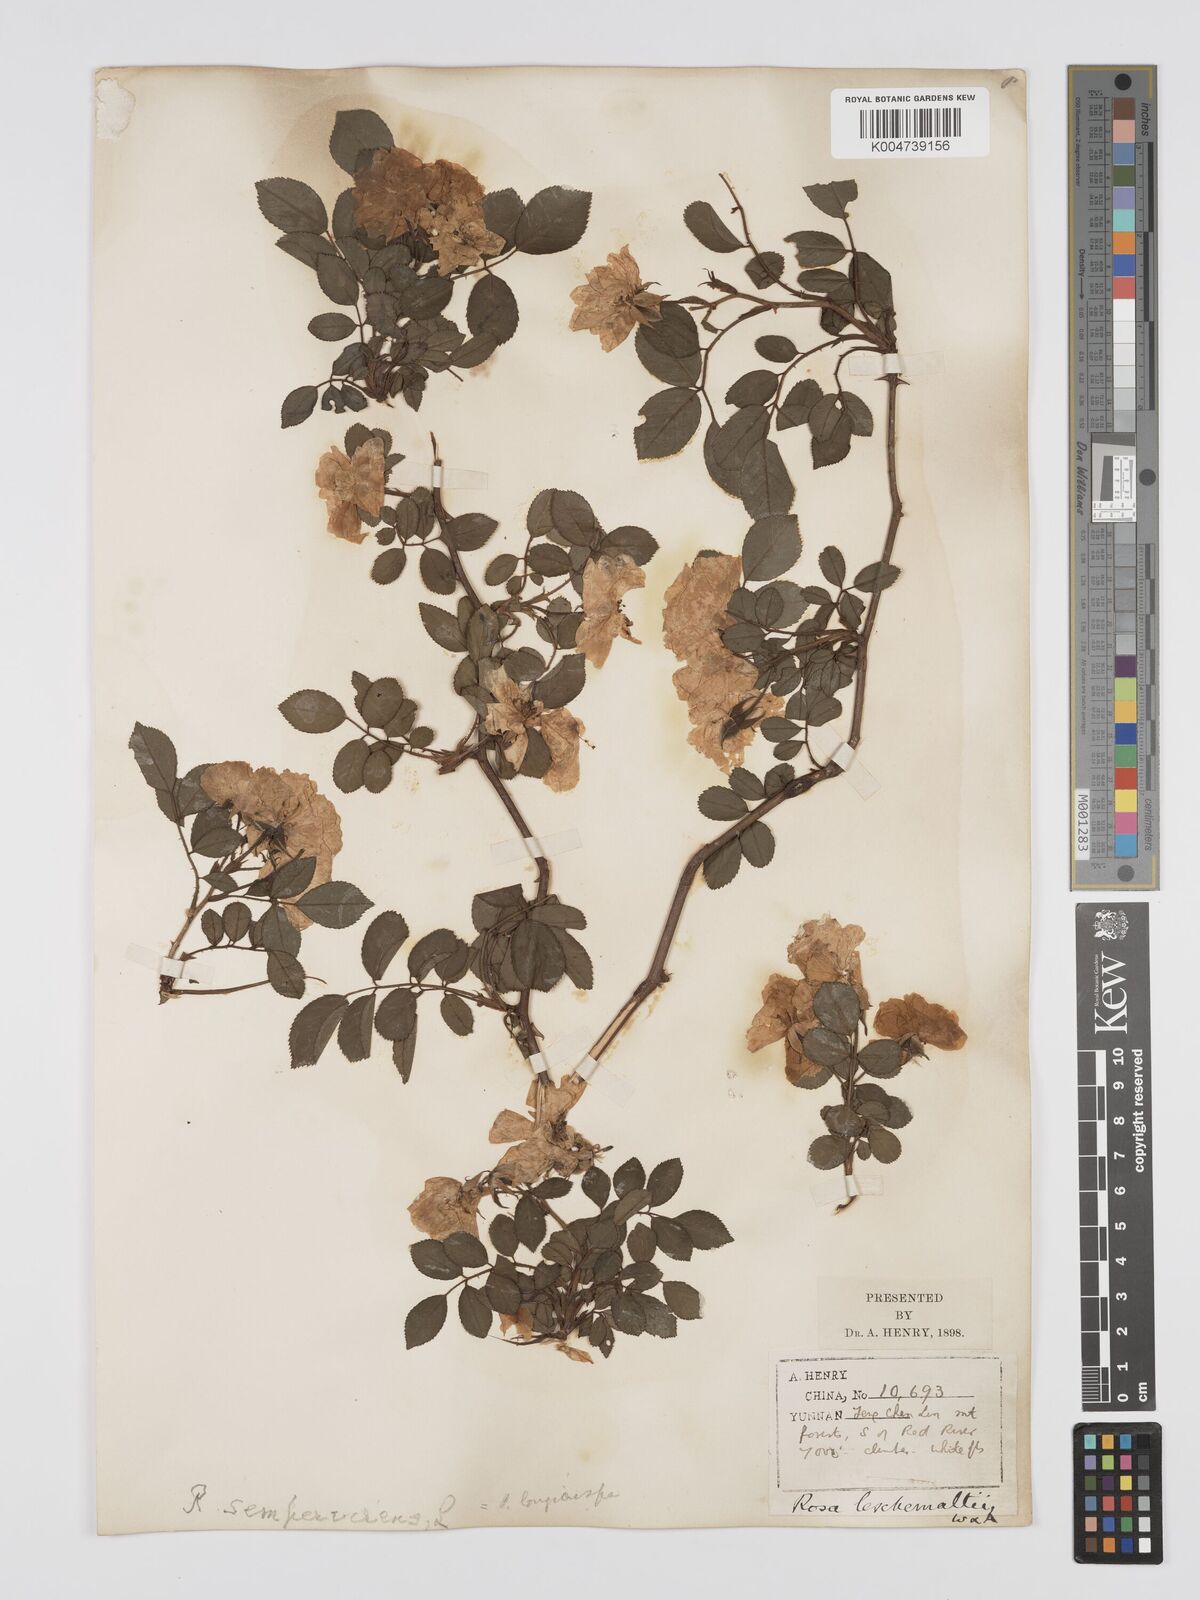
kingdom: Plantae
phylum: Tracheophyta
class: Magnoliopsida
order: Rosales
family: Rosaceae
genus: Rosa
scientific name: Rosa longicuspis
